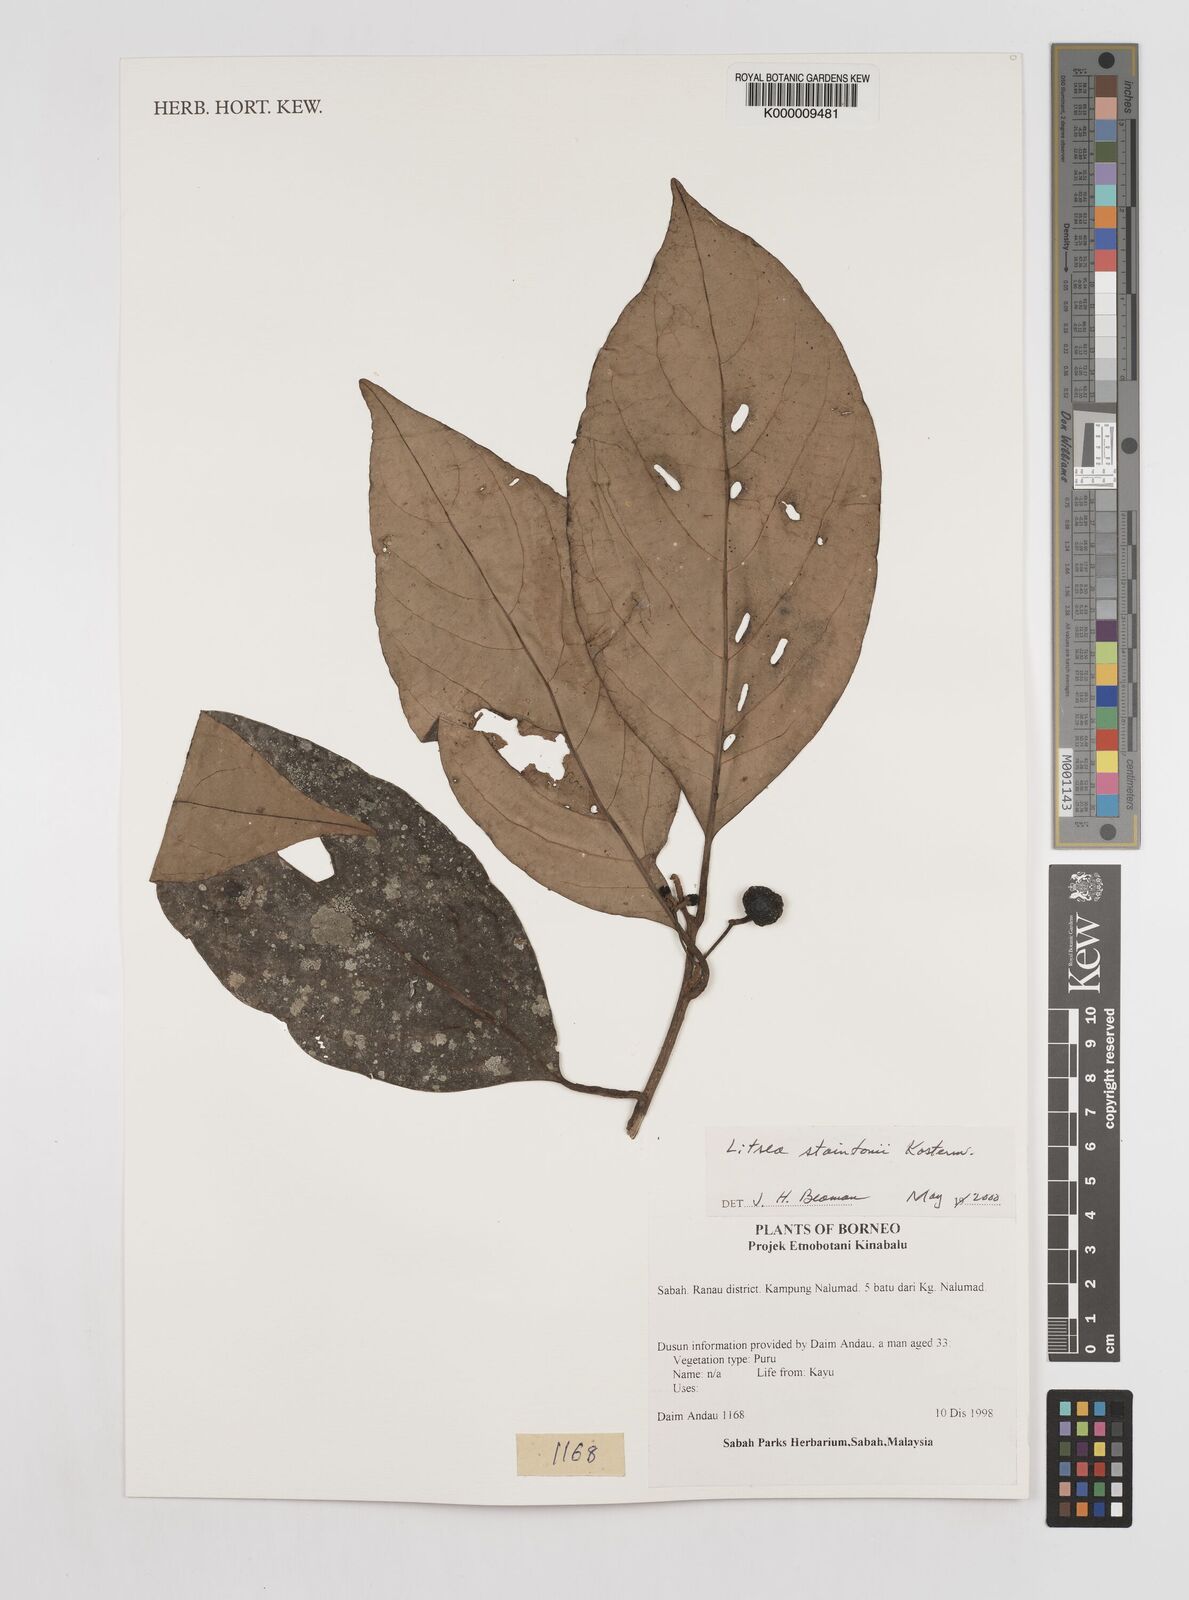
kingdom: Plantae
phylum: Tracheophyta
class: Magnoliopsida
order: Laurales
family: Lauraceae
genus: Litsea
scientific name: Litsea staintonii
